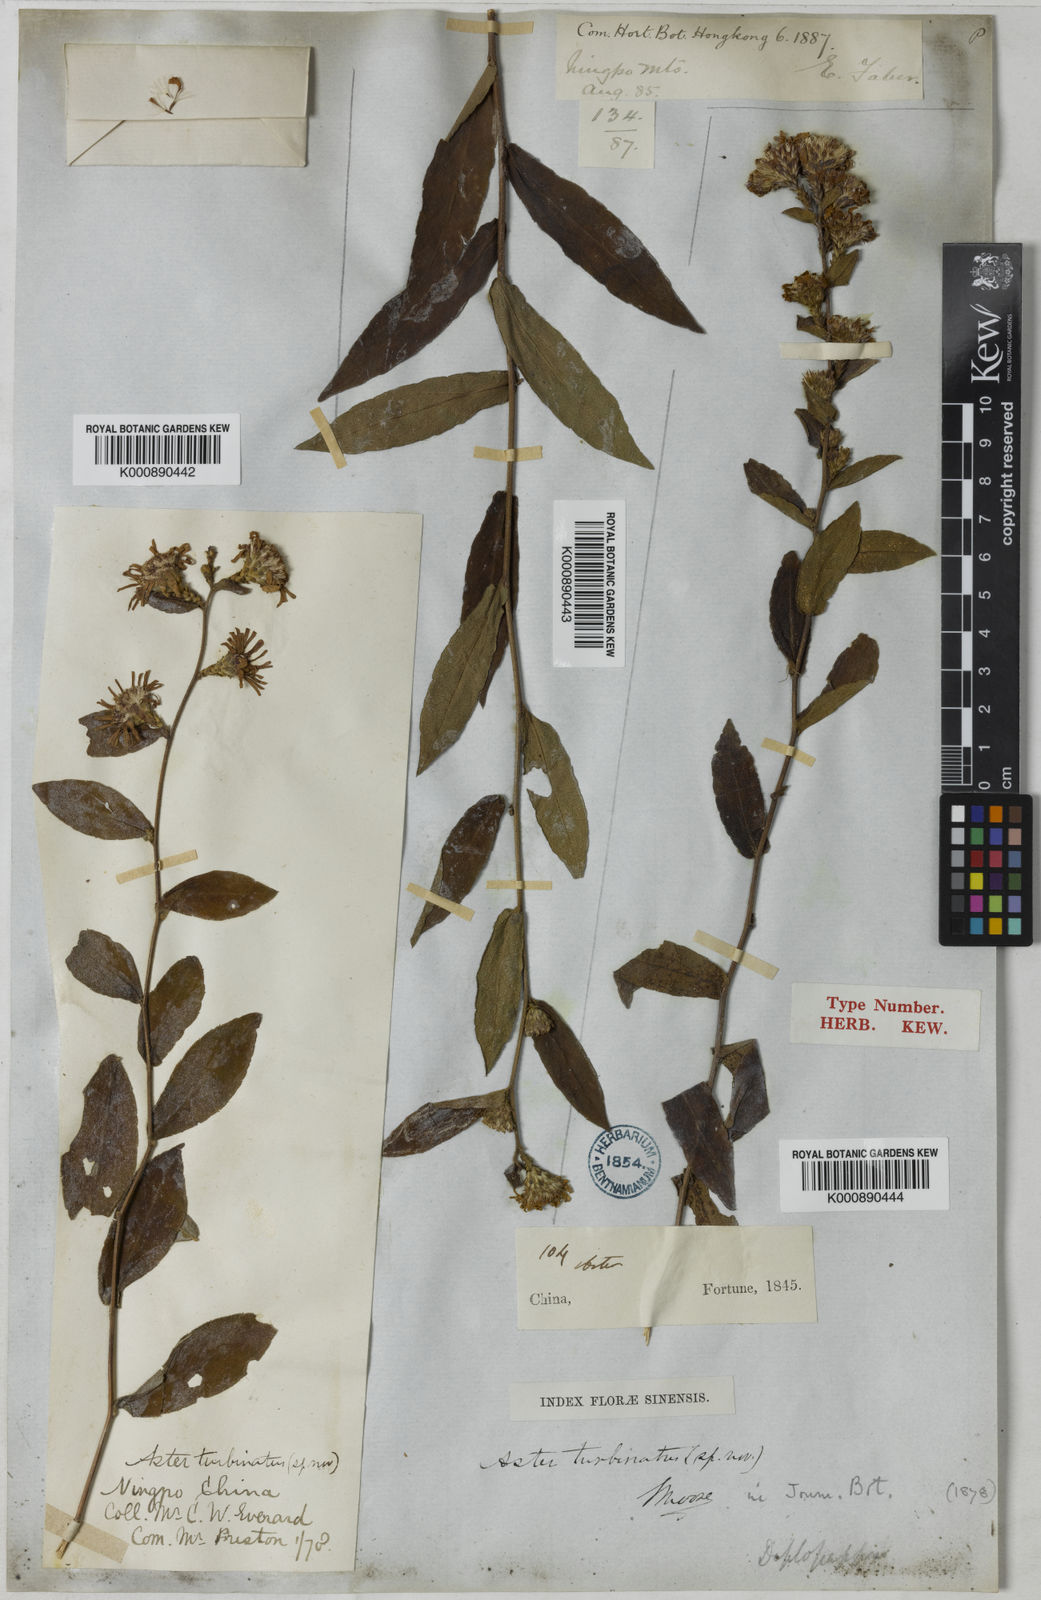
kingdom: Plantae
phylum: Tracheophyta
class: Magnoliopsida
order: Asterales
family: Asteraceae
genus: Aster
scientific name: Aster turbinatus
